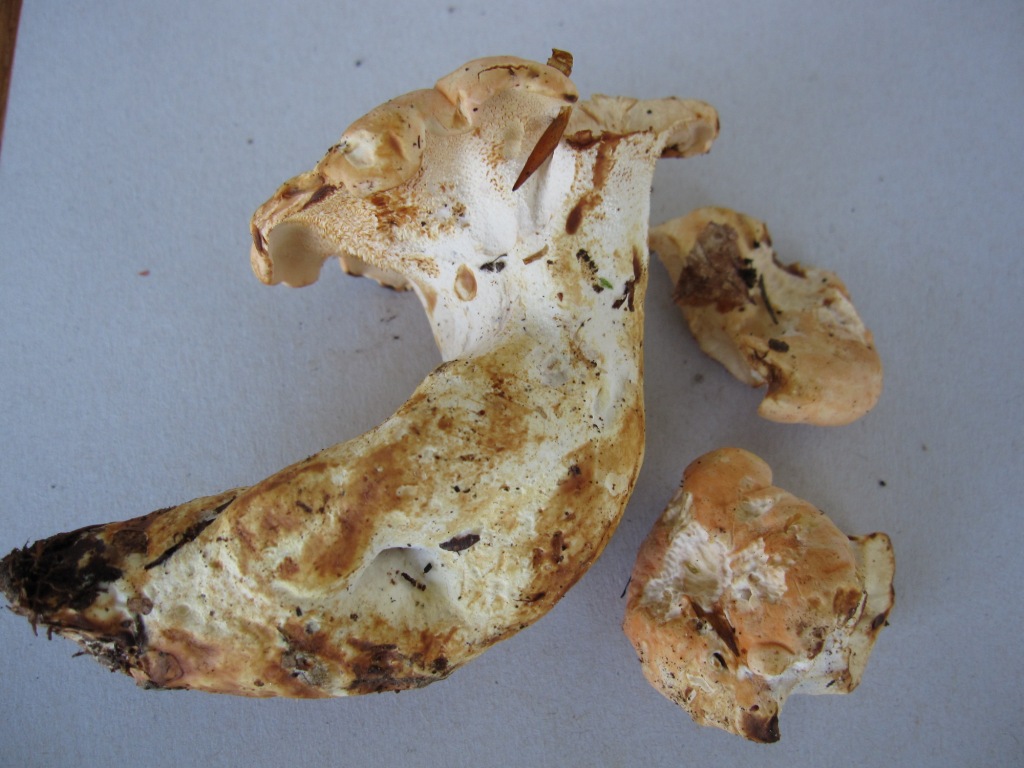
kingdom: Fungi
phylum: Basidiomycota
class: Agaricomycetes
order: Cantharellales
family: Hydnaceae
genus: Hydnum
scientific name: Hydnum repandum
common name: almindelig pigsvamp
